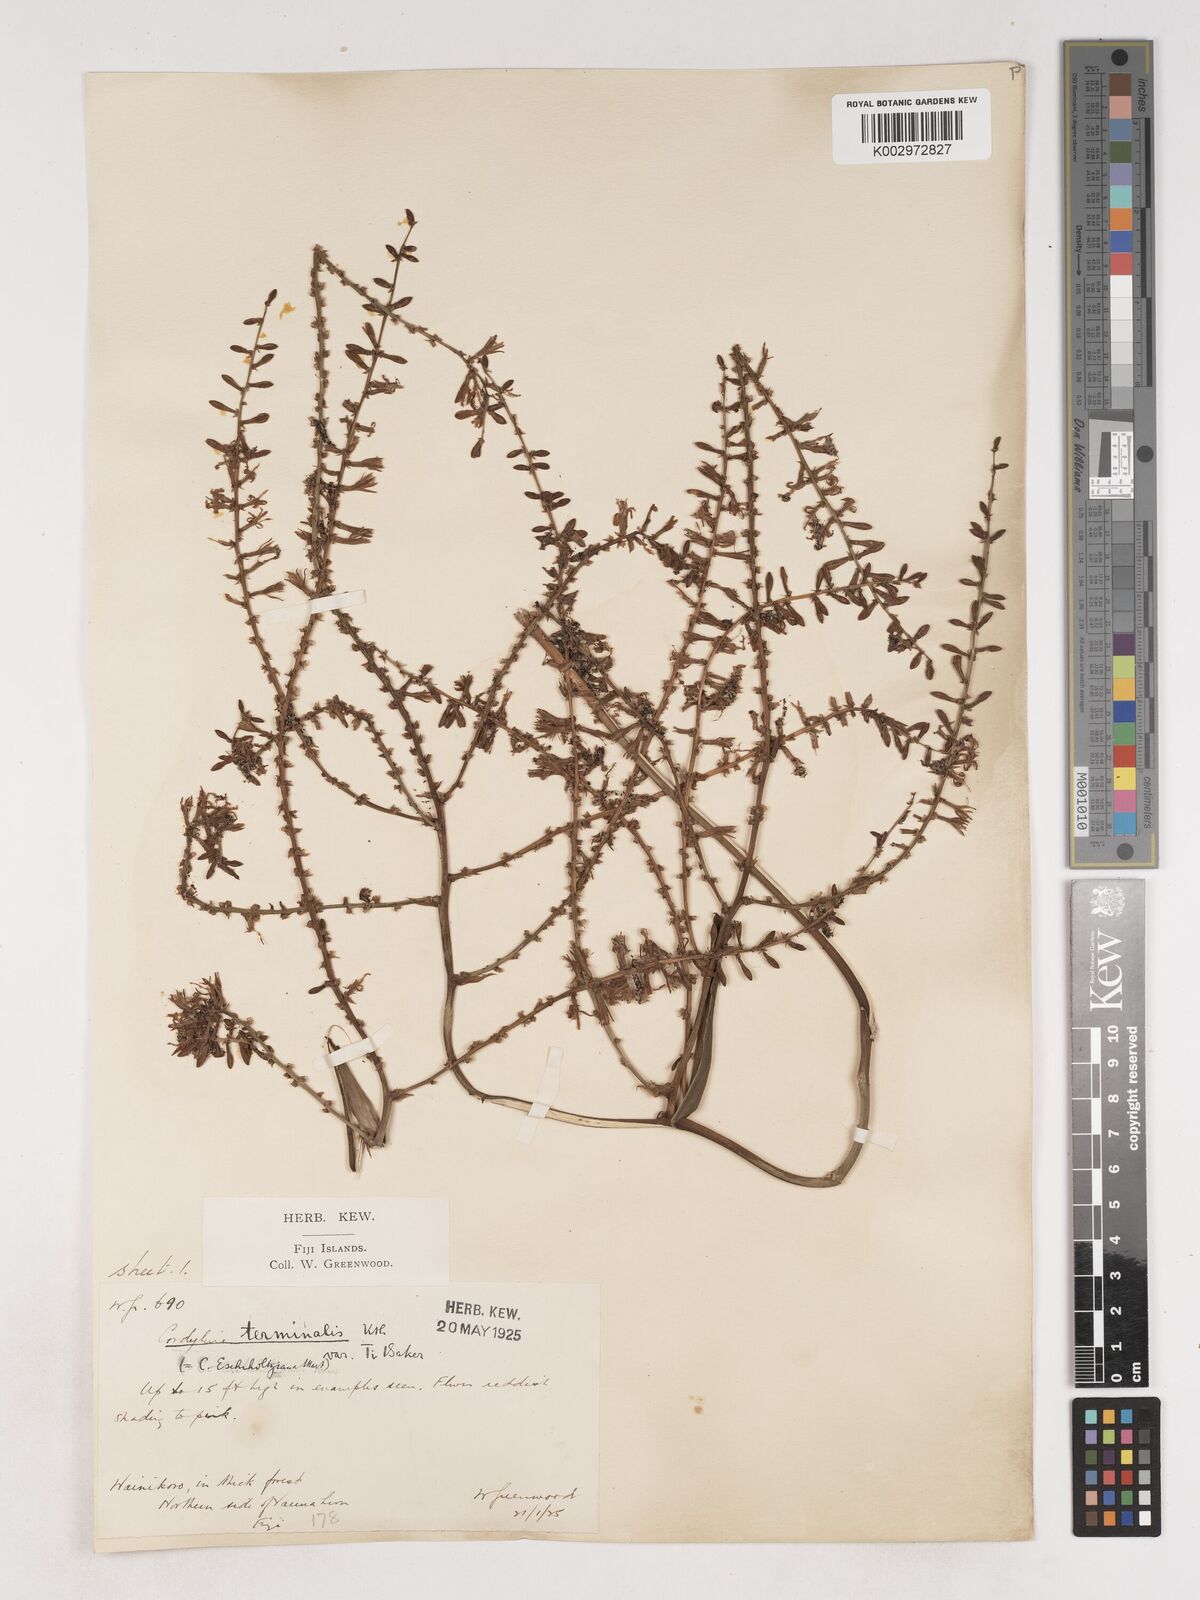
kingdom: Plantae
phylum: Tracheophyta
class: Liliopsida
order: Asparagales
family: Asparagaceae
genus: Cordyline
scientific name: Cordyline fruticosa
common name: Good-luck-plant
